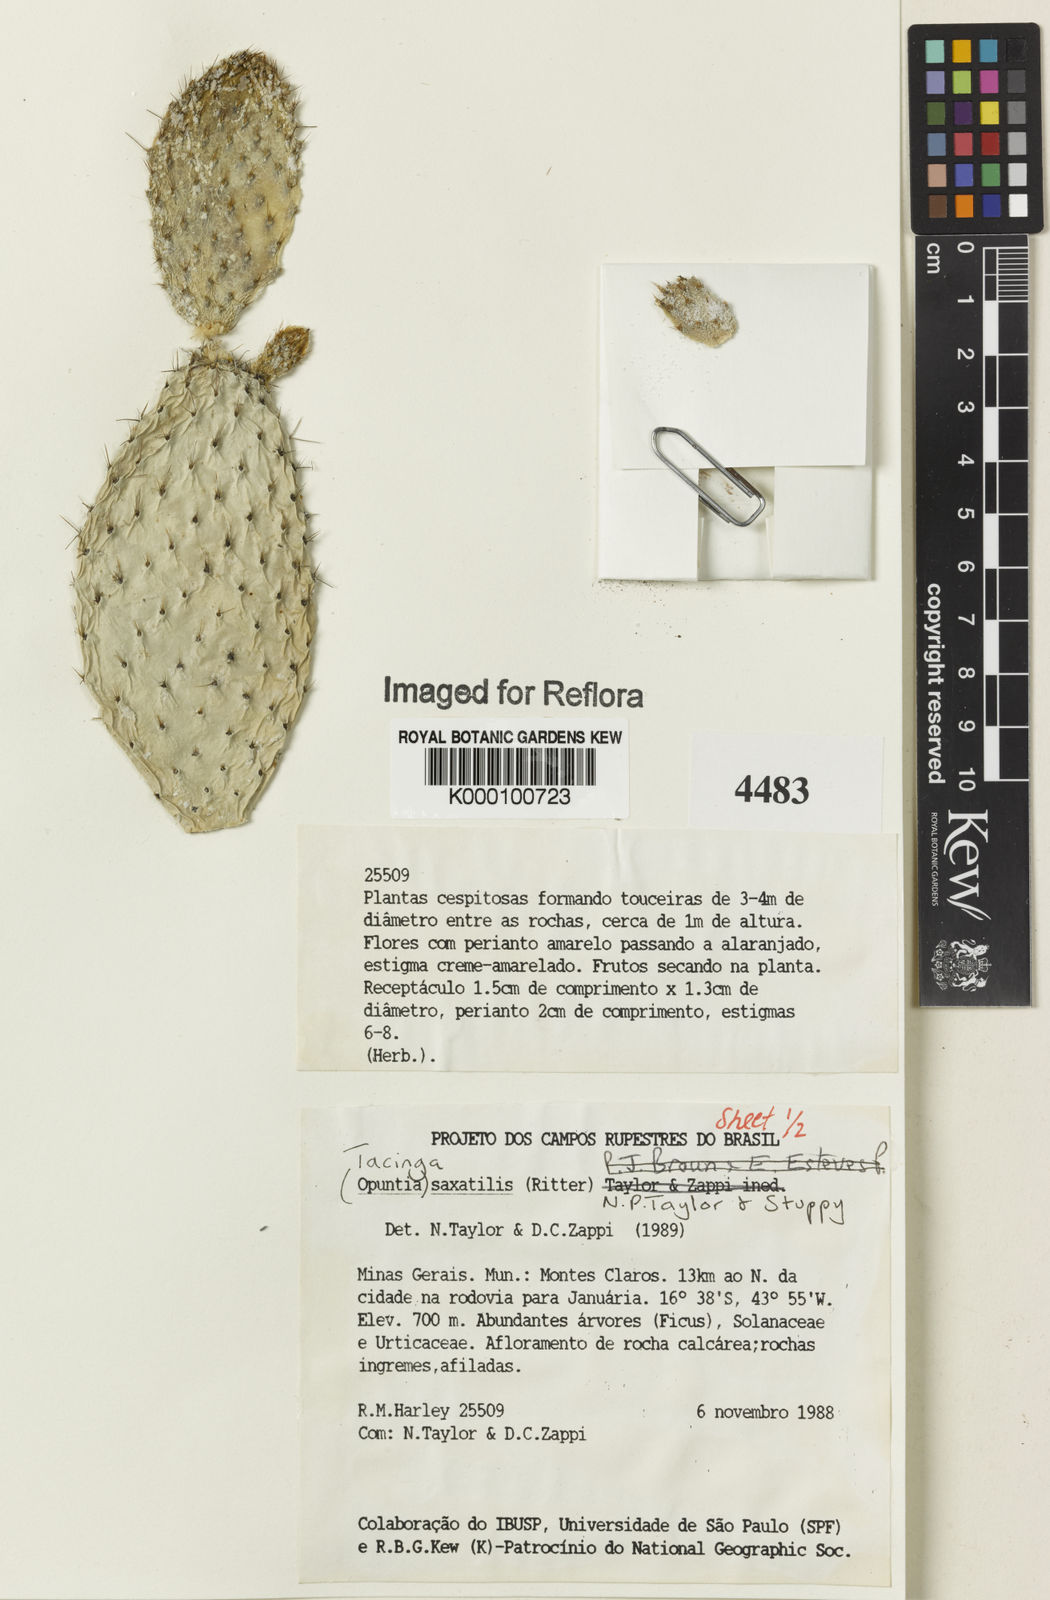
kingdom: Plantae
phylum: Tracheophyta
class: Magnoliopsida
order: Caryophyllales
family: Cactaceae
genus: Tacinga
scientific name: Tacinga saxatilis
